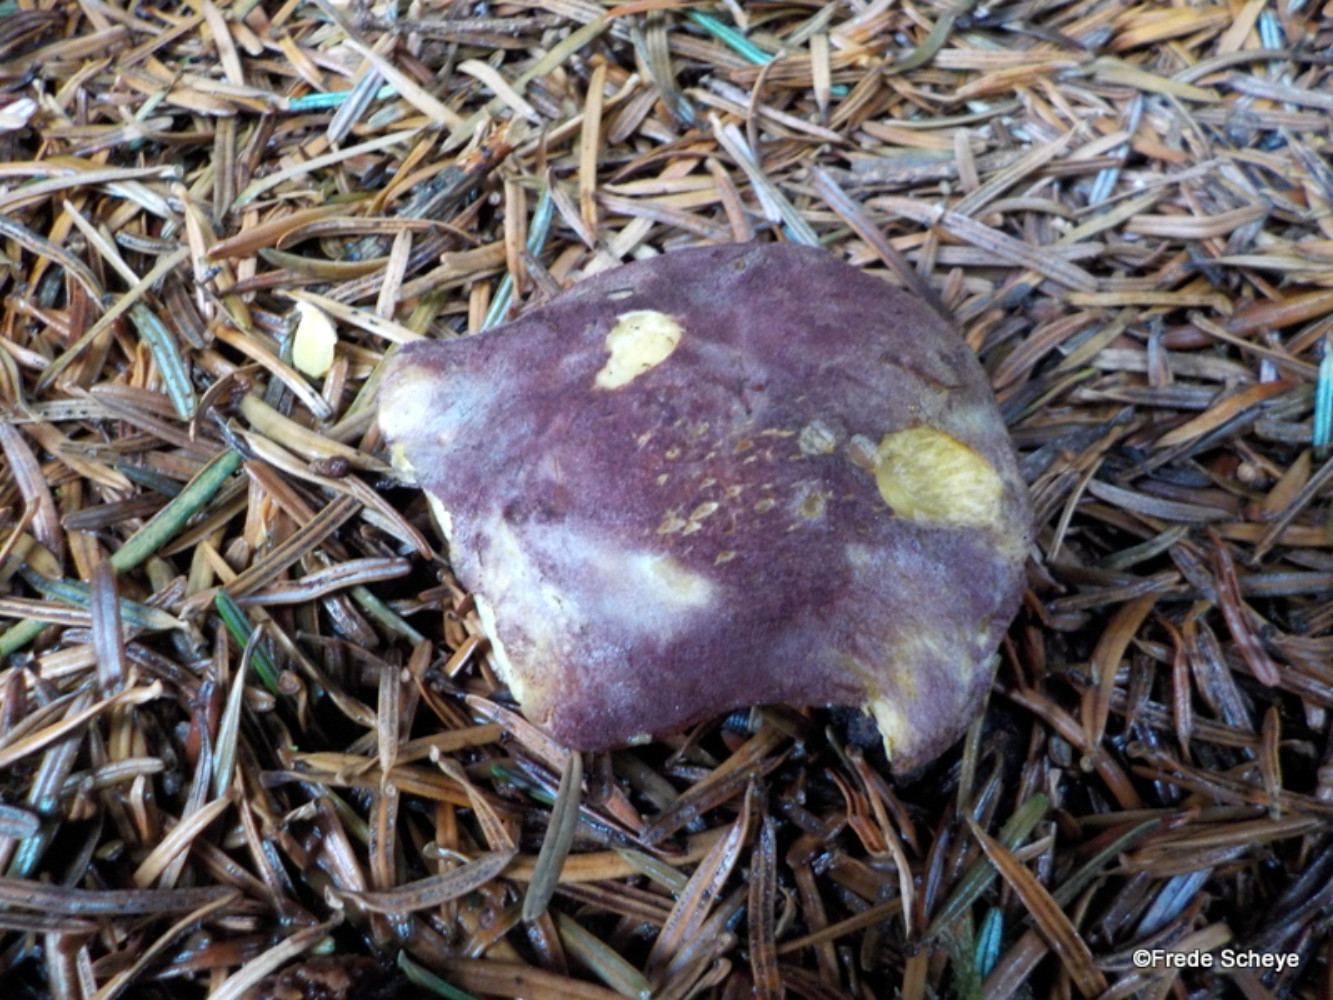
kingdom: Fungi
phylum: Basidiomycota
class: Agaricomycetes
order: Agaricales
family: Tricholomataceae
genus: Tricholomopsis
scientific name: Tricholomopsis rutilans
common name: purpur-væbnerhat
